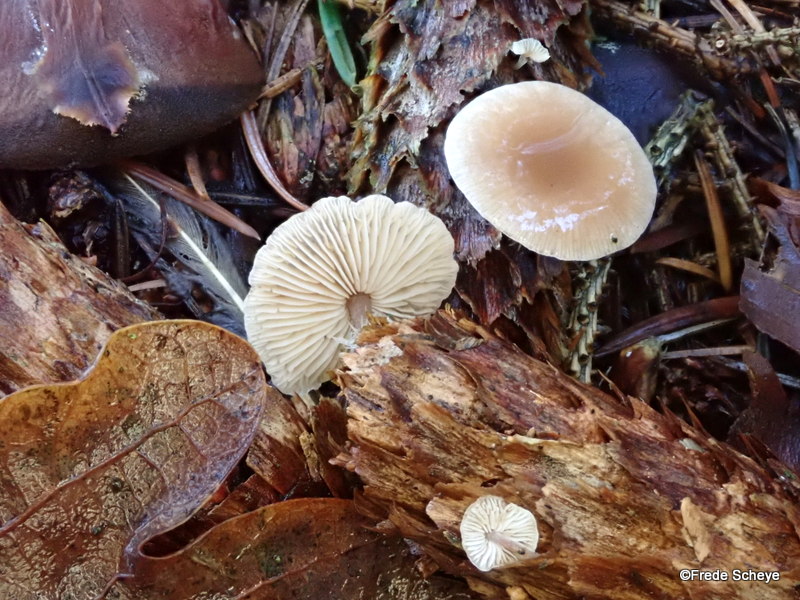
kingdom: Fungi
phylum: Basidiomycota
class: Agaricomycetes
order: Agaricales
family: Marasmiaceae
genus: Baeospora
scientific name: Baeospora myosura
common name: koglebruskhat
